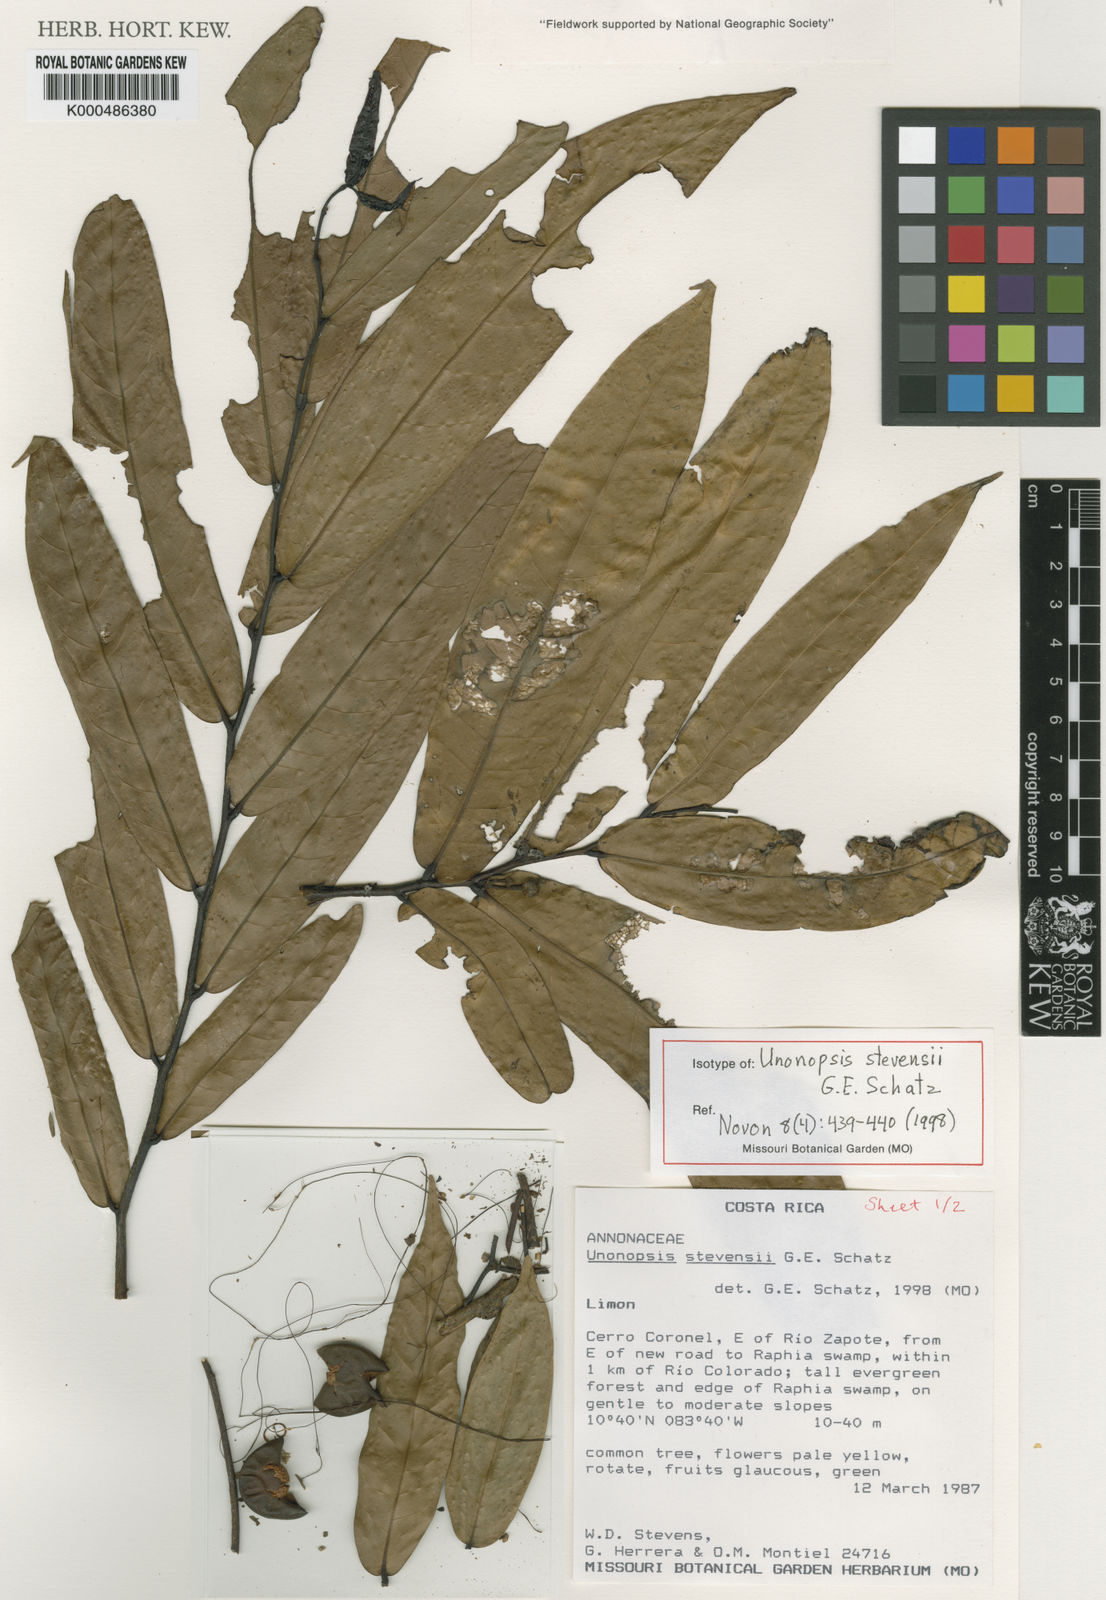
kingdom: Plantae
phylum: Tracheophyta
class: Magnoliopsida
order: Magnoliales
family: Annonaceae
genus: Unonopsis
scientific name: Unonopsis stevensii
